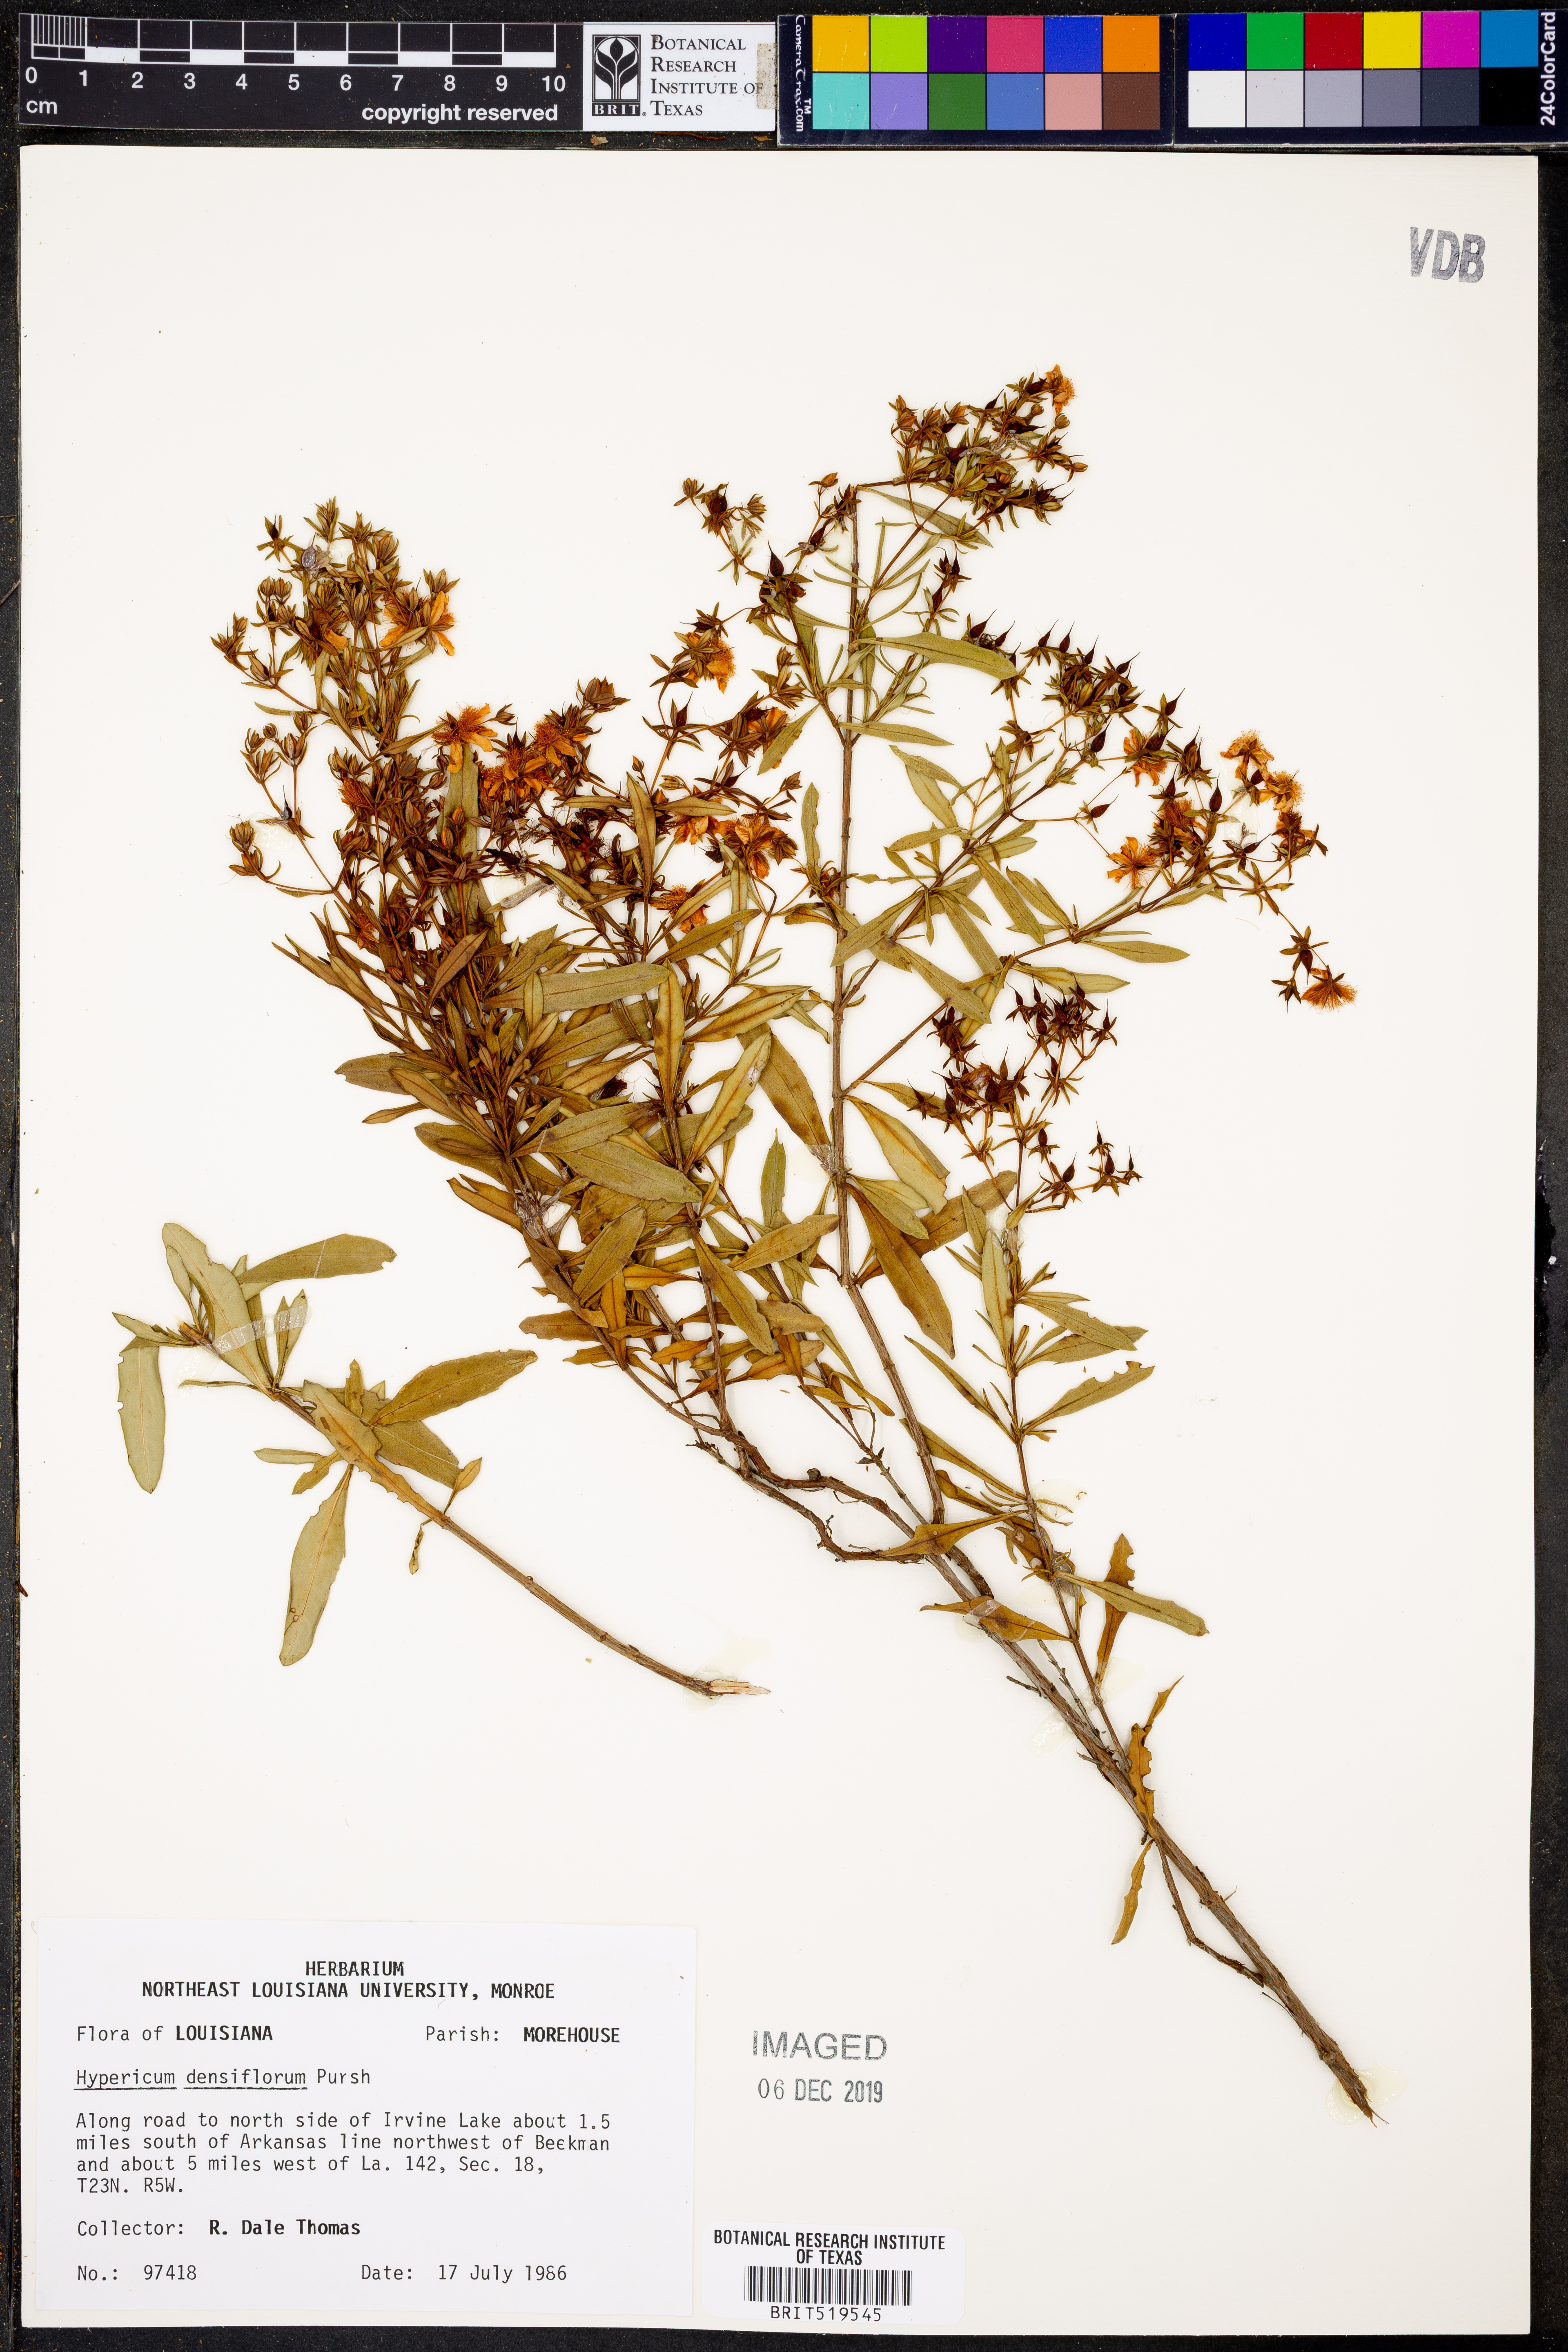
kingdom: Plantae
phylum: Tracheophyta
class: Magnoliopsida
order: Malpighiales
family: Hypericaceae
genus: Hypericum
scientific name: Hypericum densiflorum
